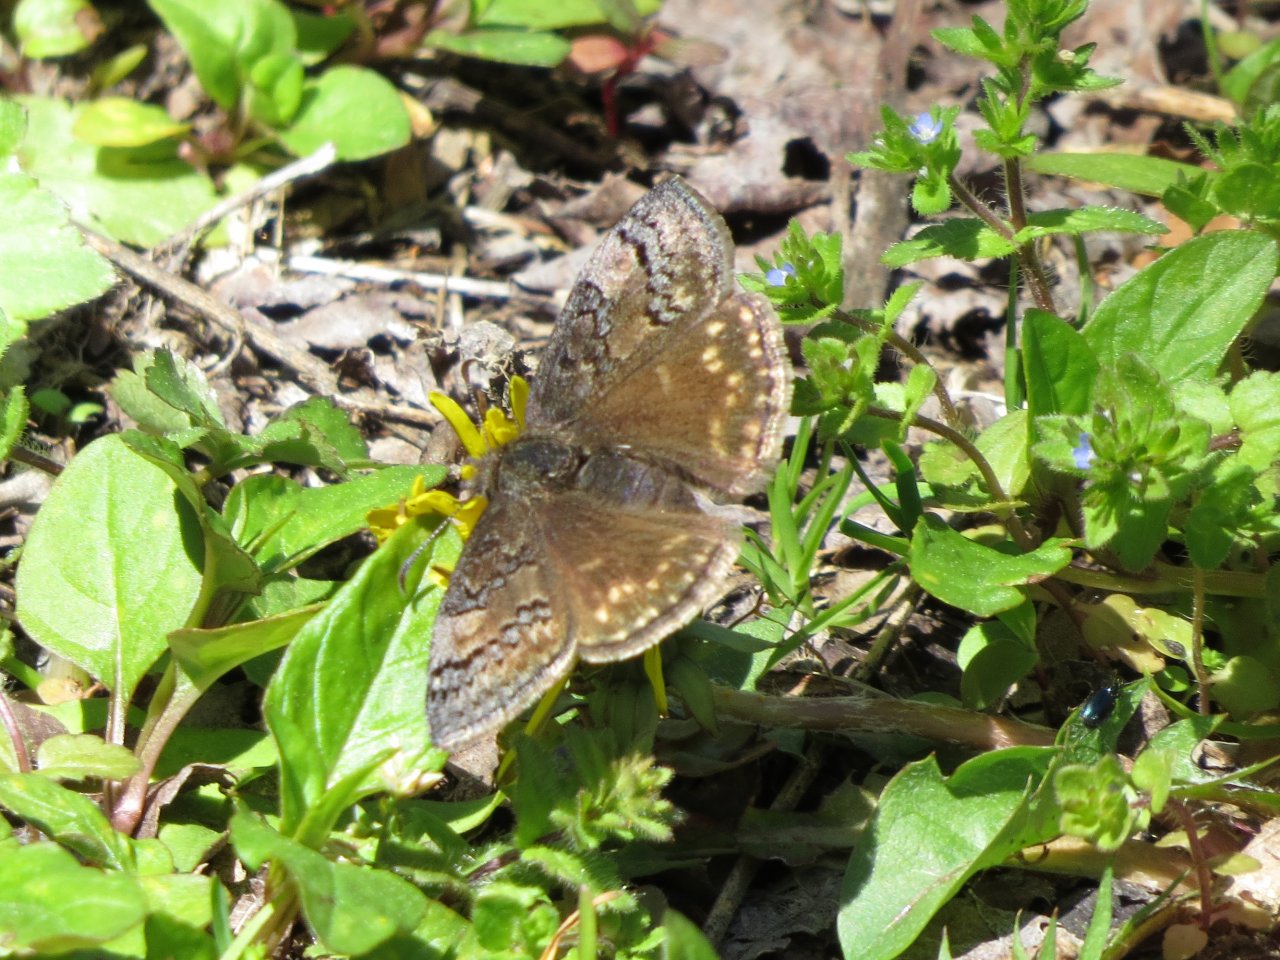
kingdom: Animalia
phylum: Arthropoda
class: Insecta
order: Lepidoptera
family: Hesperiidae
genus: Erynnis
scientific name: Erynnis brizo
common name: Sleepy Duskywing
